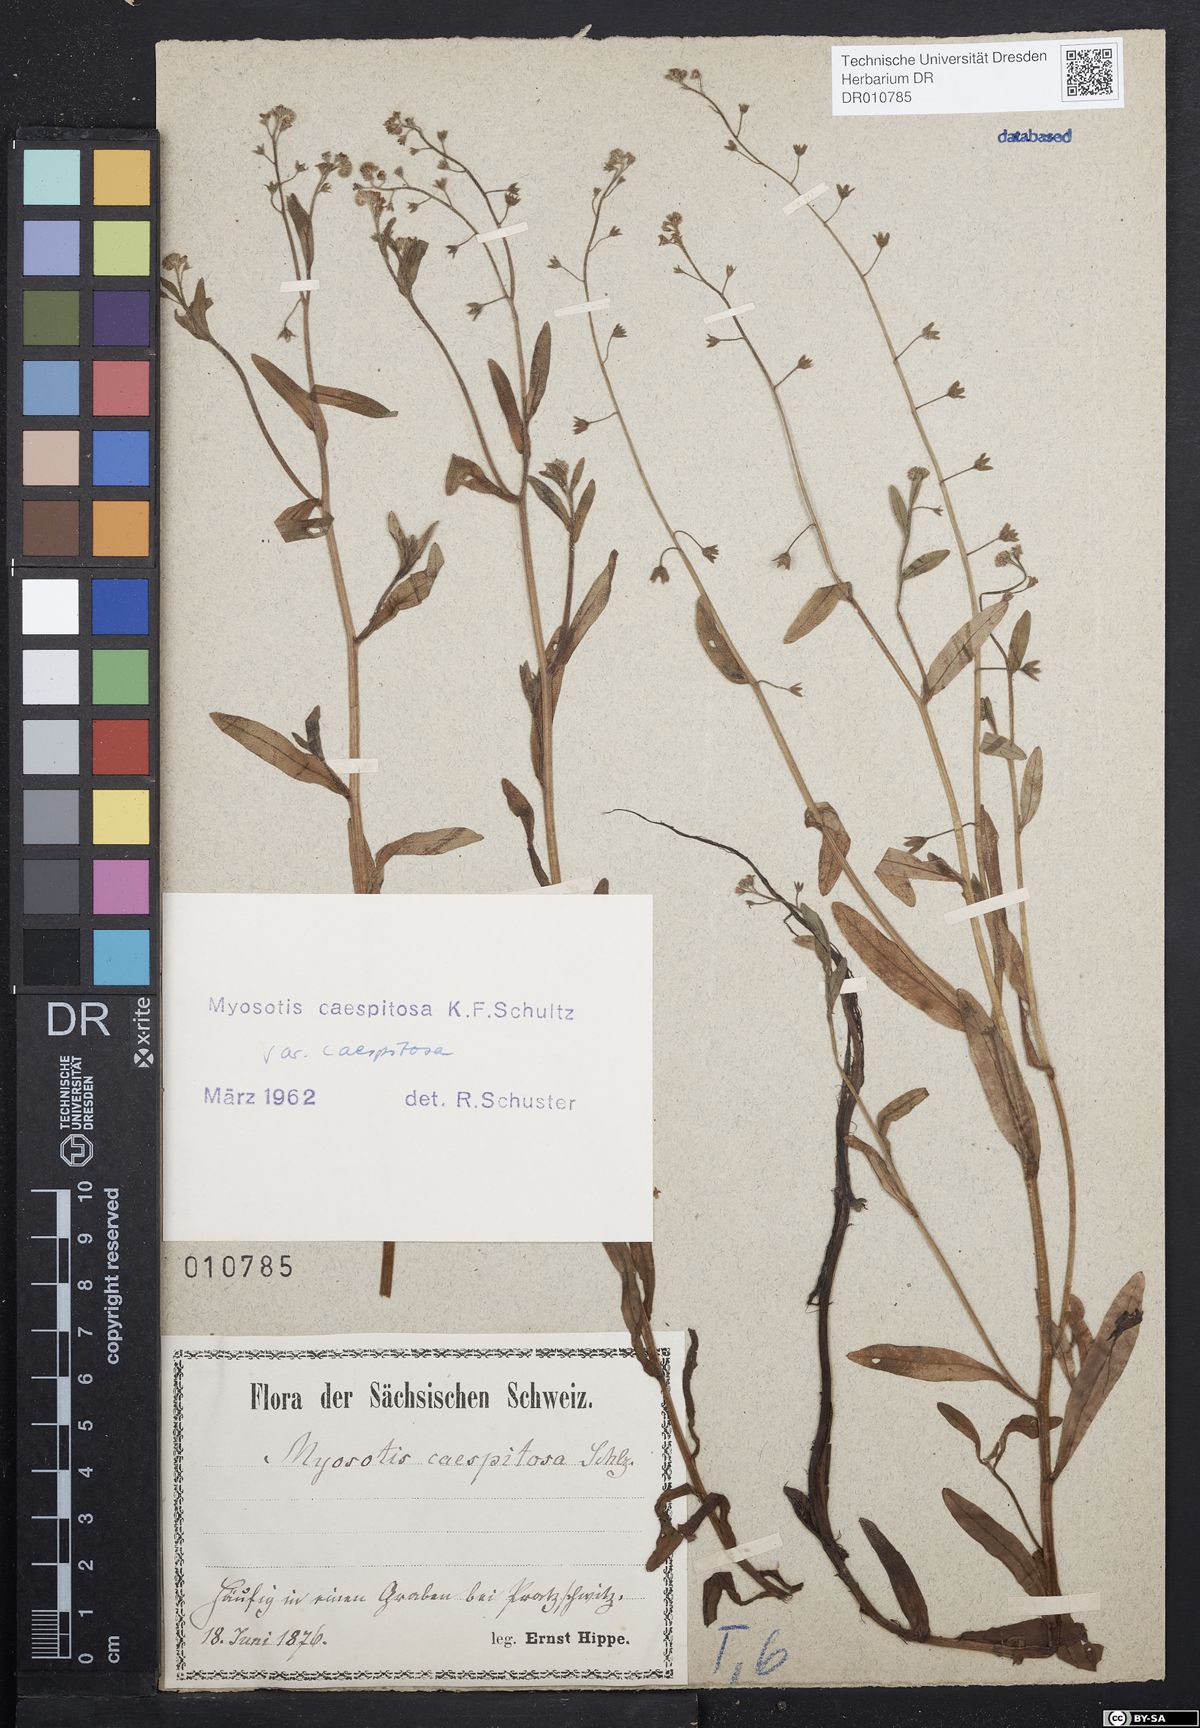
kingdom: Plantae
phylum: Tracheophyta
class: Magnoliopsida
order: Boraginales
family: Boraginaceae
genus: Myosotis
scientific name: Myosotis laxa
